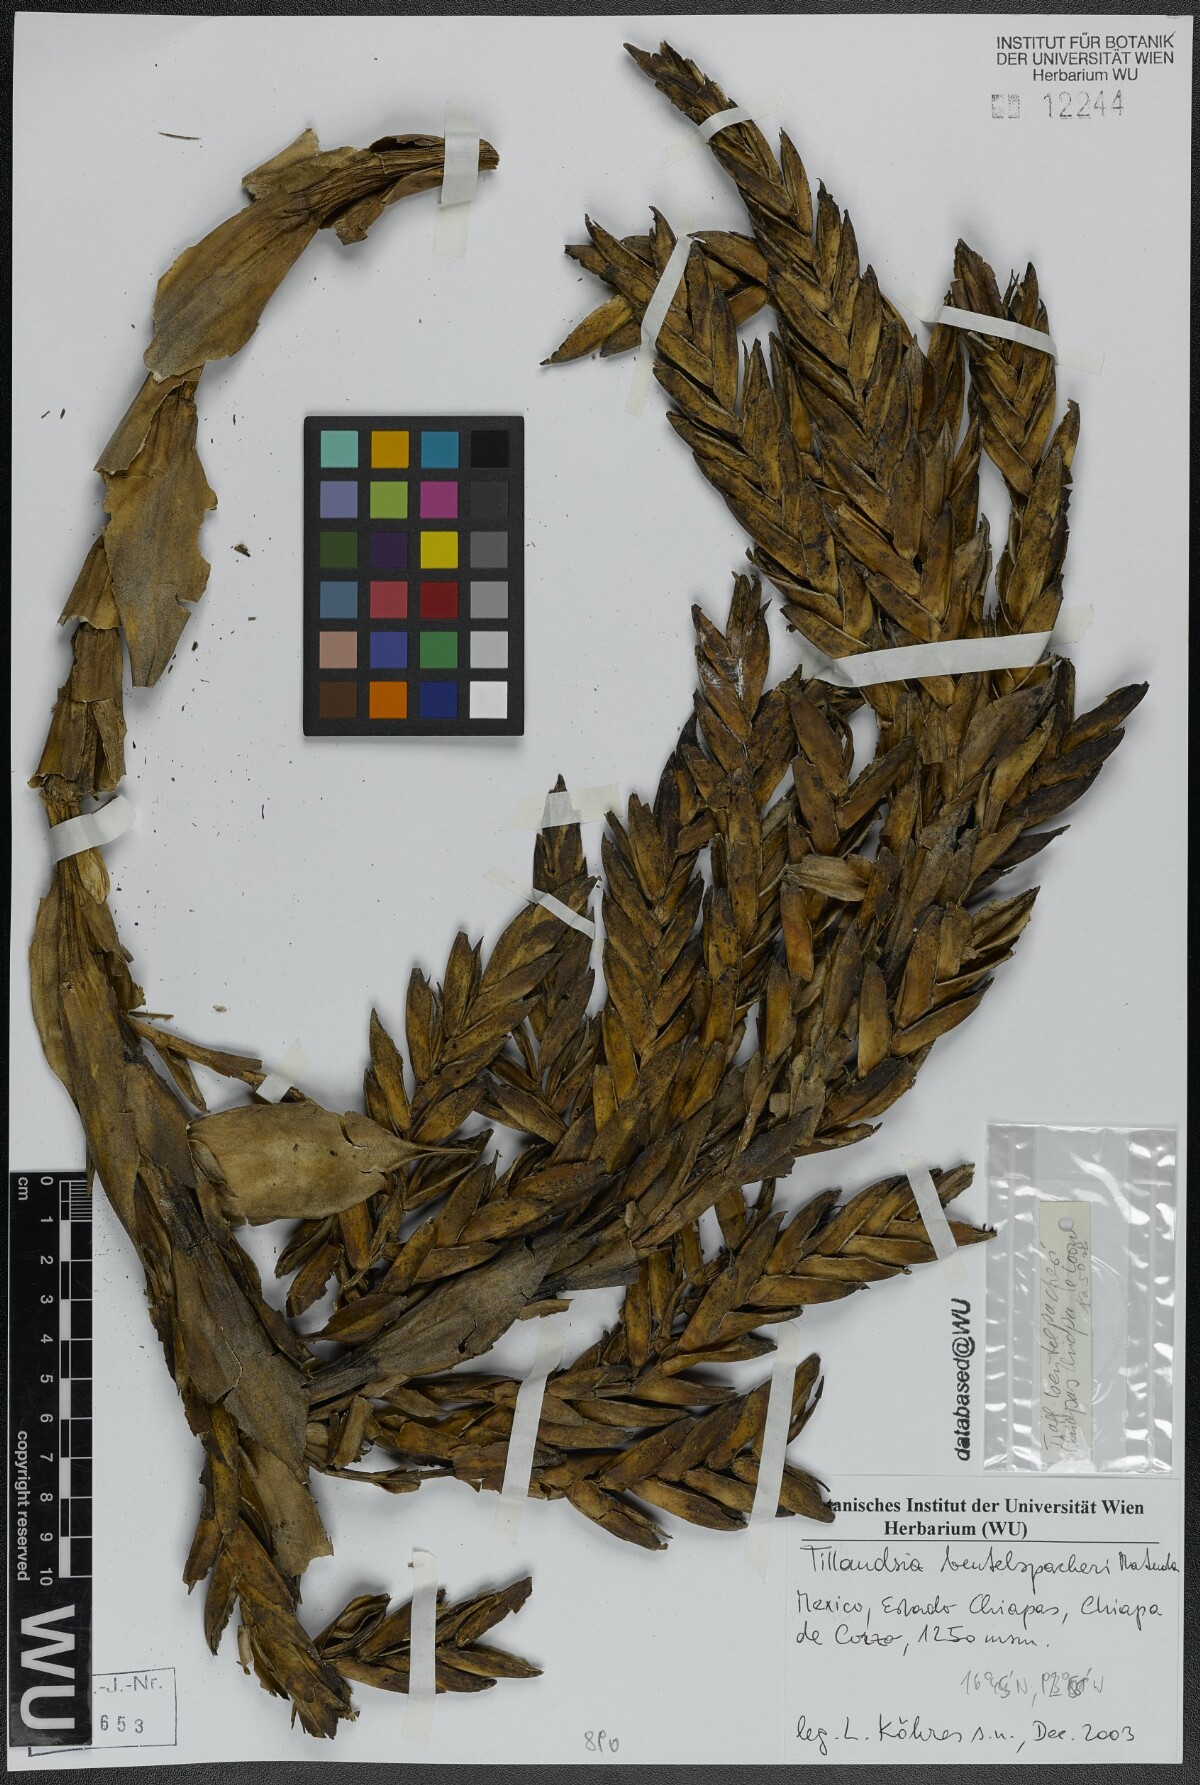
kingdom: Plantae
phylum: Tracheophyta
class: Liliopsida
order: Poales
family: Bromeliaceae
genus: Tillandsia
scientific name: Tillandsia fasciculata
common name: Giant airplant
